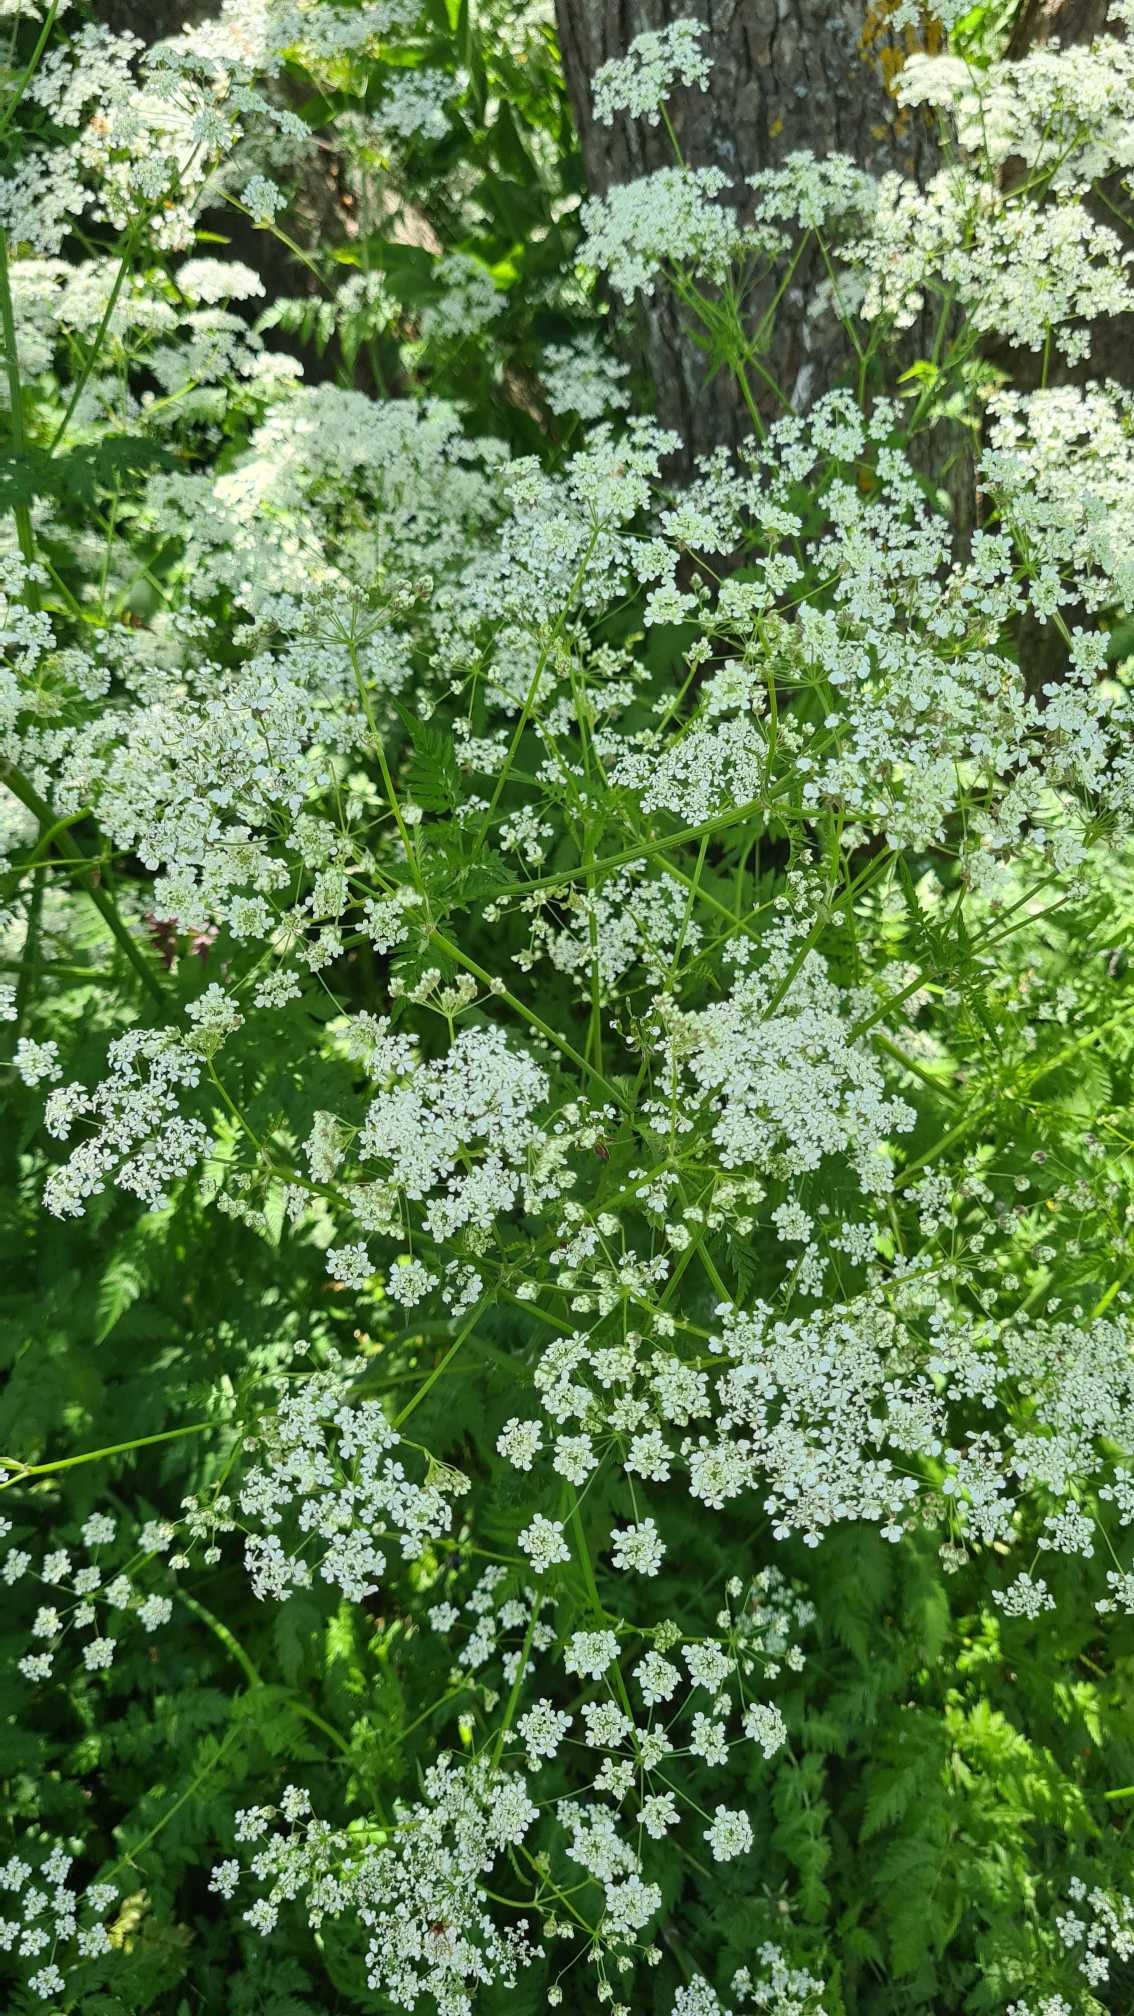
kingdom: Plantae
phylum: Tracheophyta
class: Magnoliopsida
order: Apiales
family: Apiaceae
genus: Anthriscus
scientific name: Anthriscus sylvestris
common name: Vild kørvel
